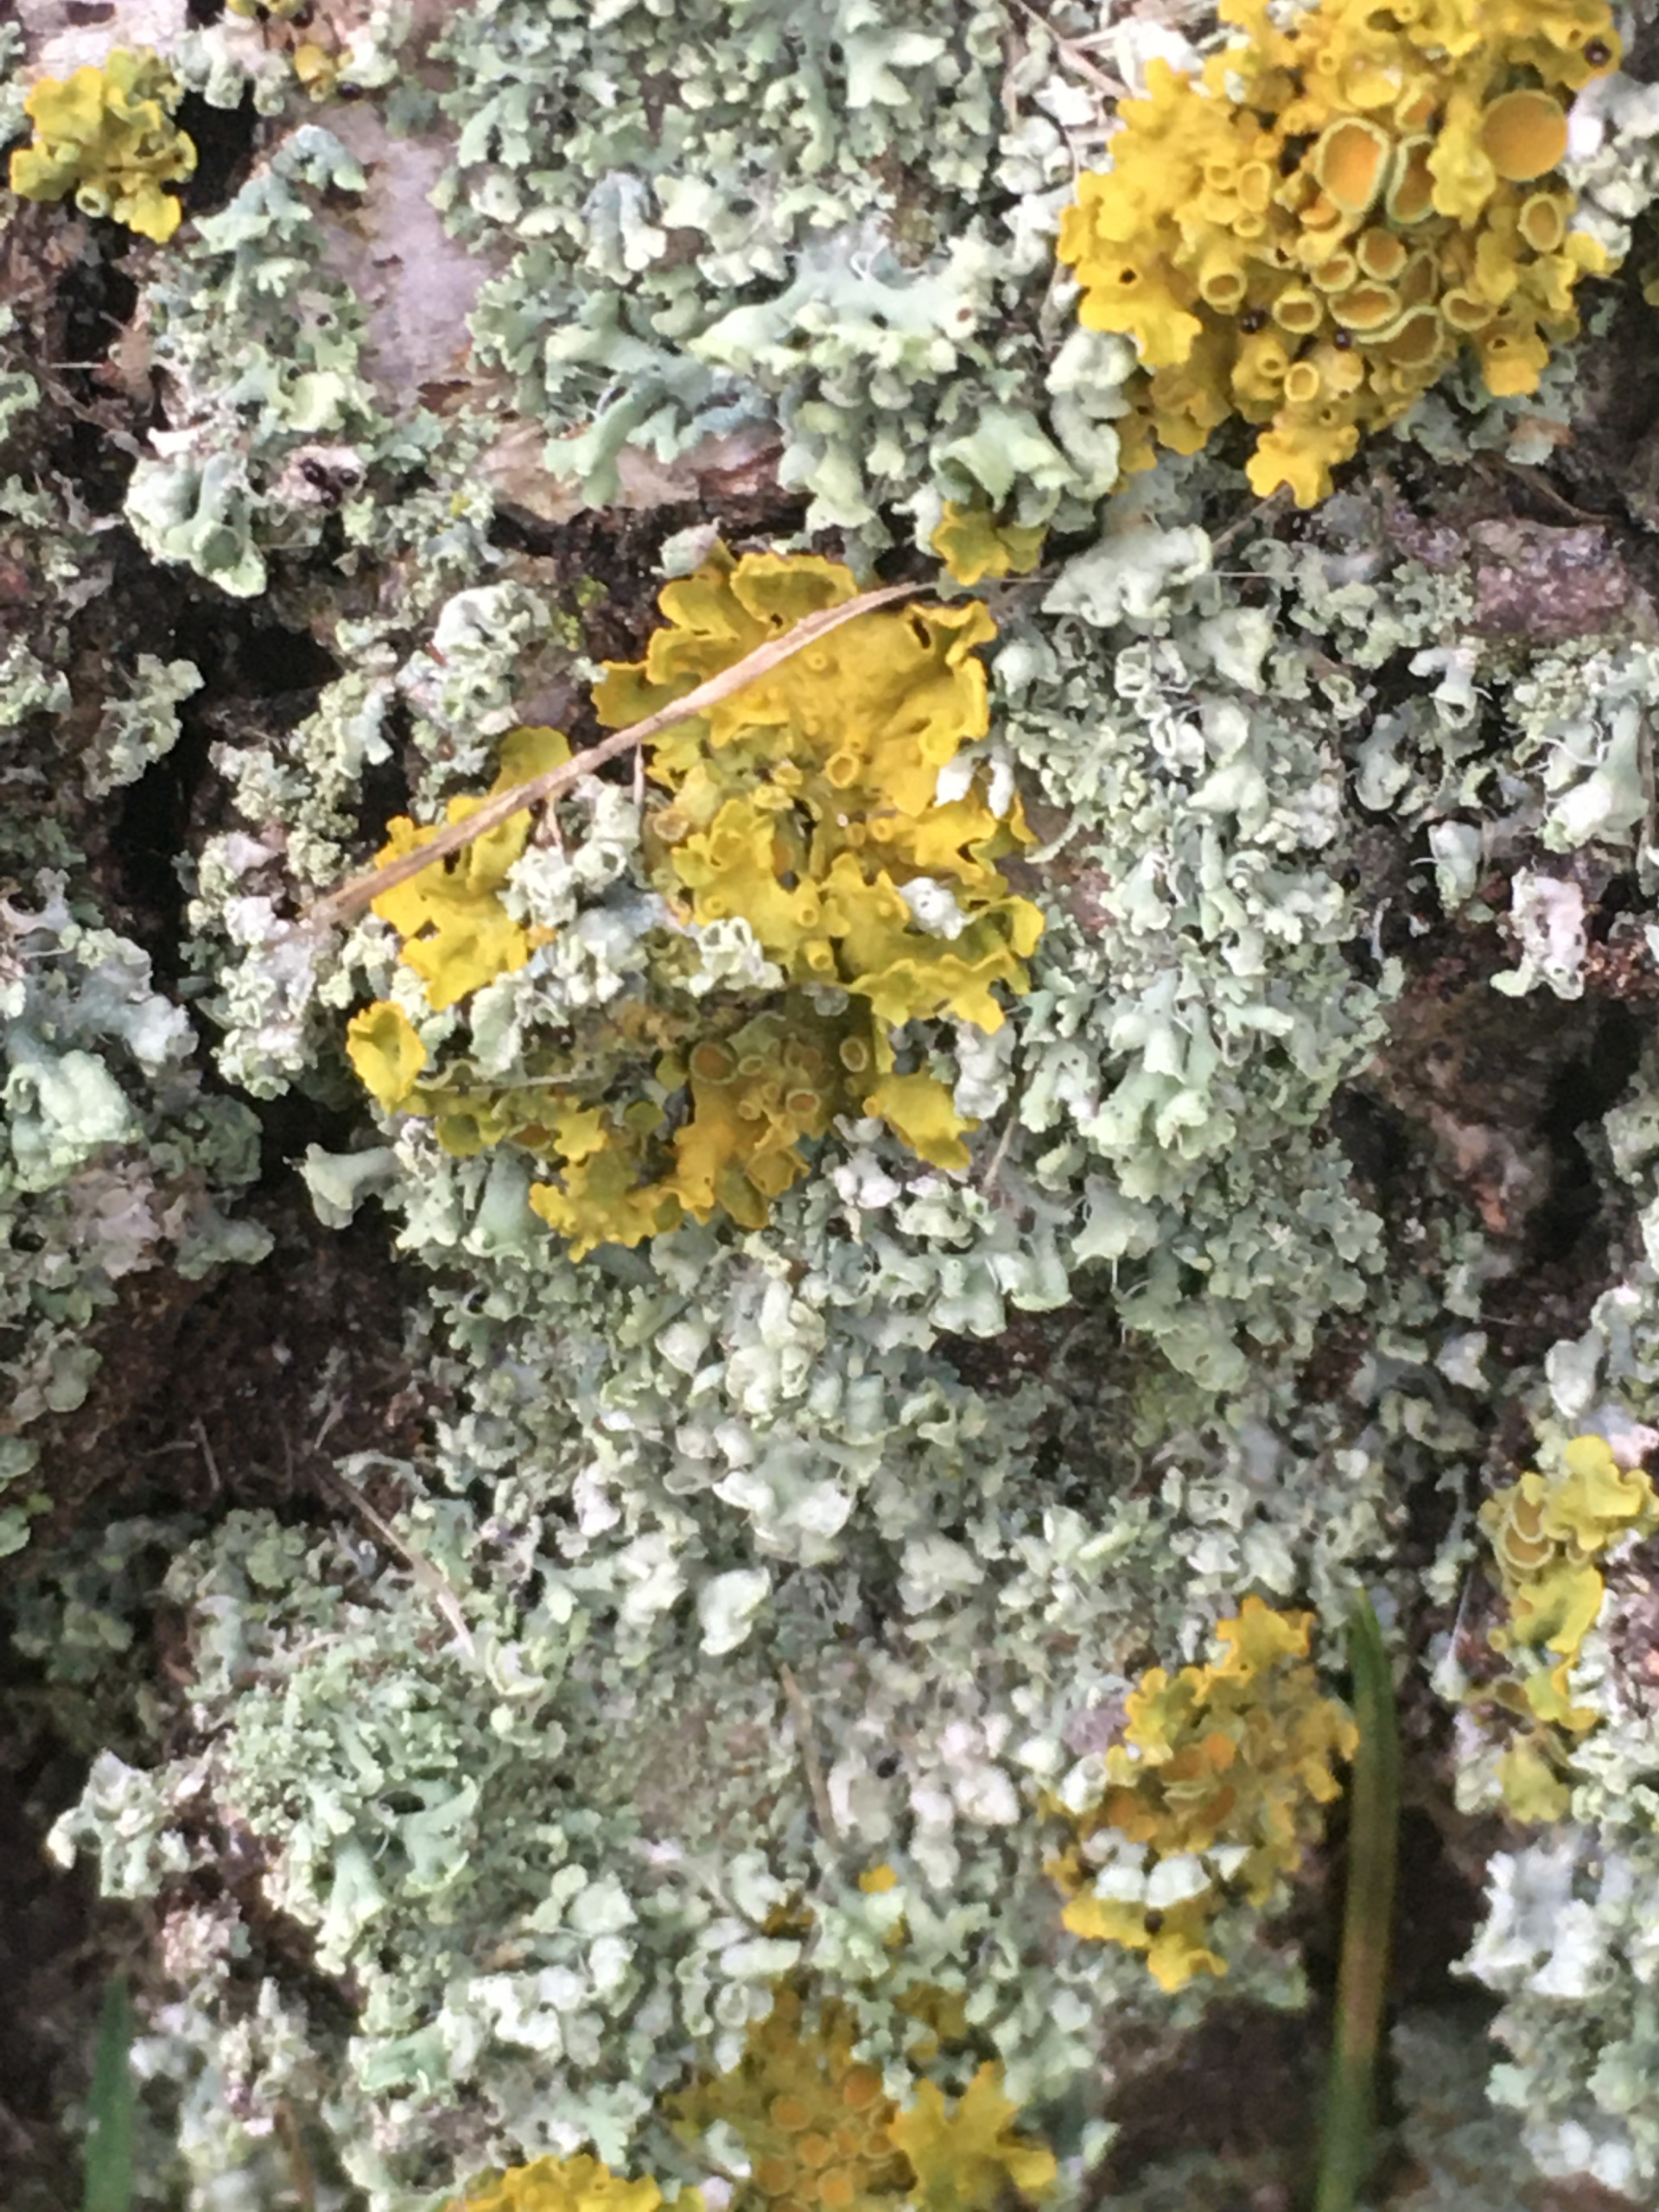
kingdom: Fungi
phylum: Ascomycota
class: Lecanoromycetes
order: Caliciales
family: Physciaceae
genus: Physcia
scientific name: Physcia adscendens
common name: Hætte-rosetlav
